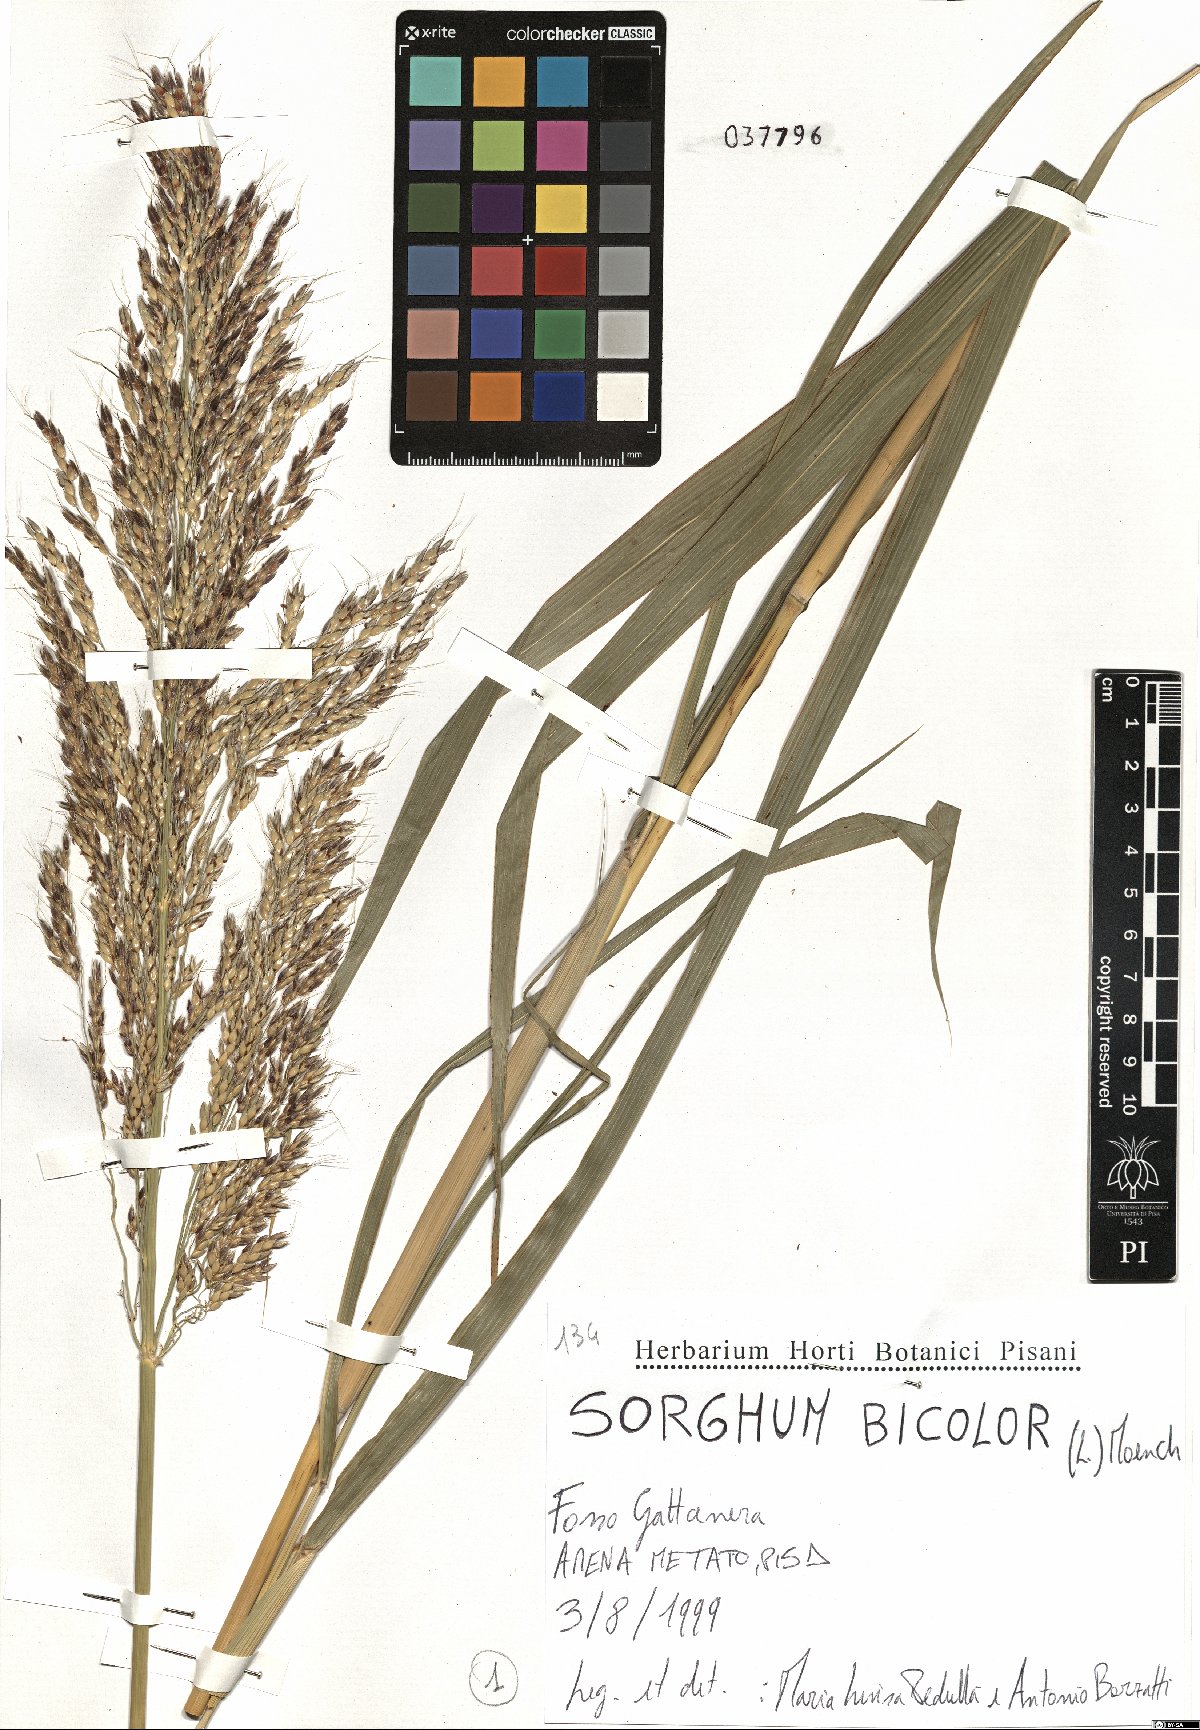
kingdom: Plantae
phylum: Tracheophyta
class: Liliopsida
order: Poales
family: Poaceae
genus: Sorghum
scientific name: Sorghum bicolor
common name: Sorghum
